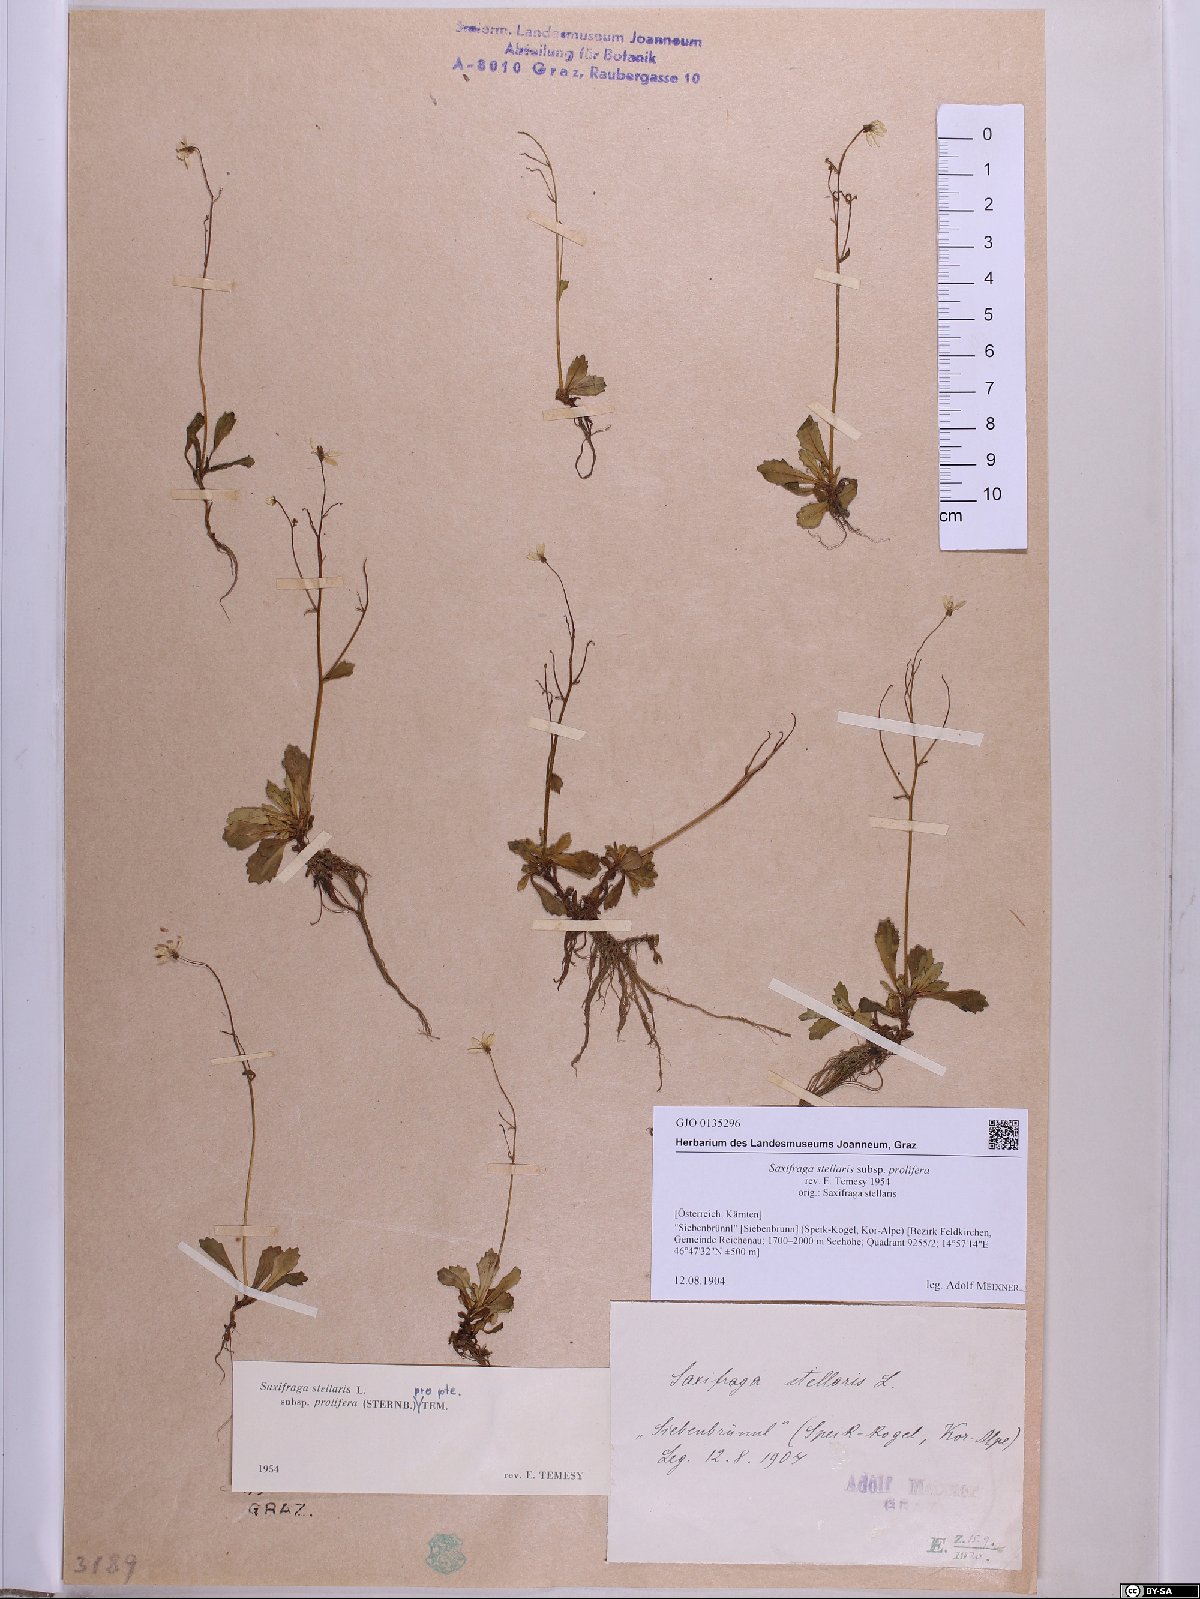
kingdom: Plantae
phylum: Tracheophyta
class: Magnoliopsida
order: Saxifragales
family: Saxifragaceae
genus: Micranthes
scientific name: Micranthes stellaris
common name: Starry saxifrage
